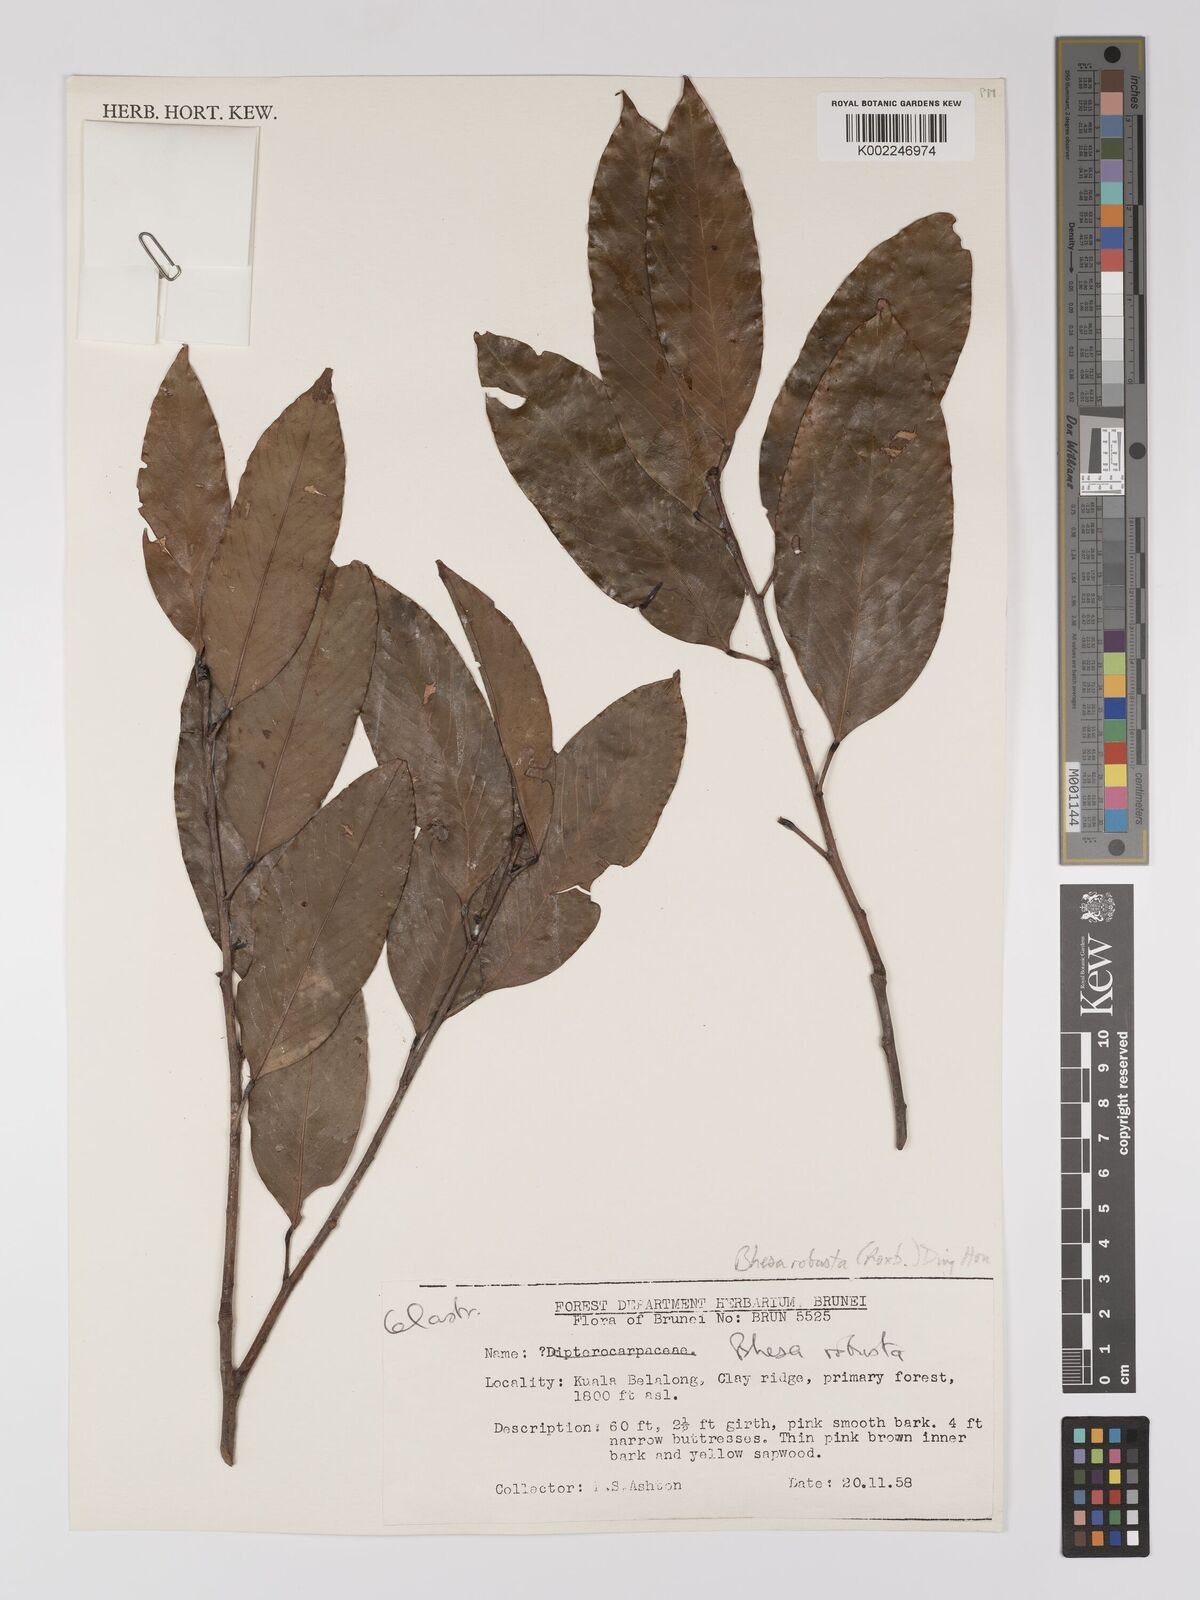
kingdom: Plantae
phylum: Tracheophyta
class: Magnoliopsida
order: Malpighiales
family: Centroplacaceae
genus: Bhesa
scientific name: Bhesa robusta
